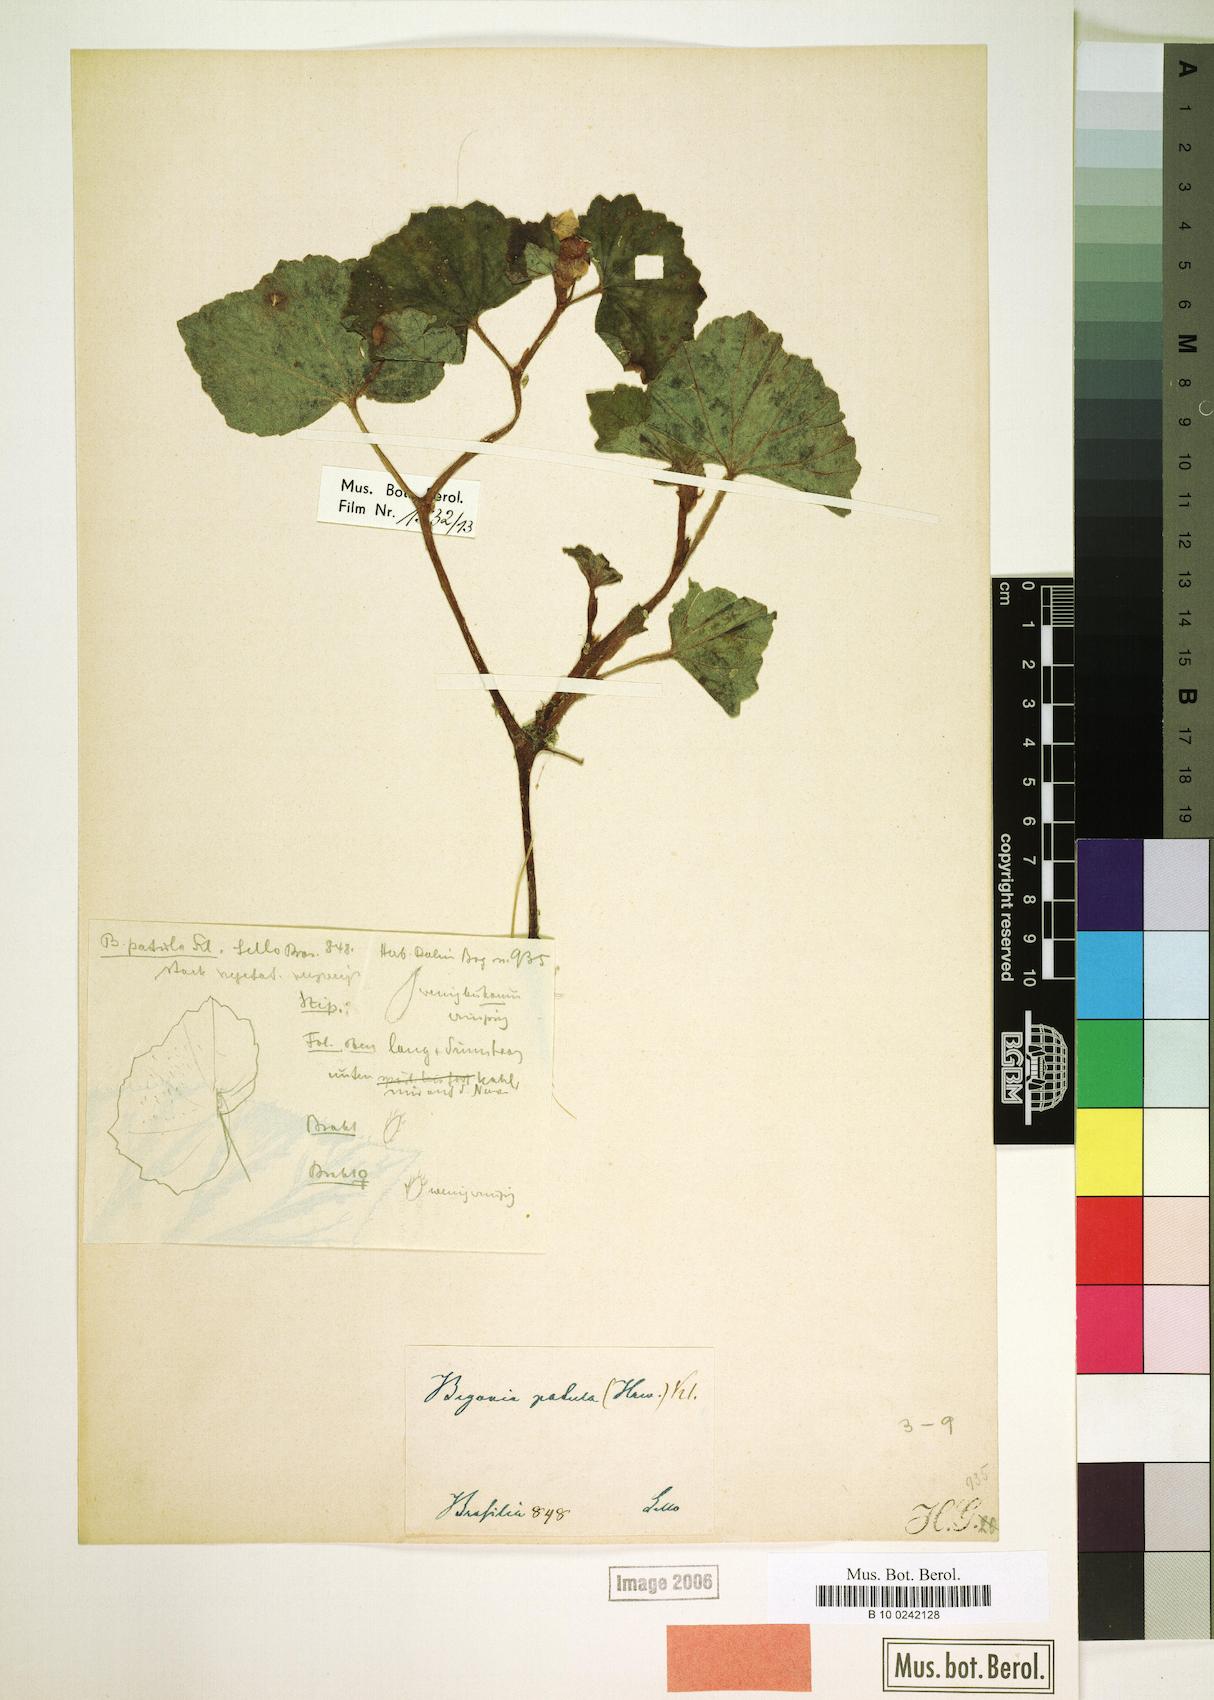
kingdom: Plantae
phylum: Tracheophyta
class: Magnoliopsida
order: Cucurbitales
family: Begoniaceae
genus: Begonia
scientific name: Begonia fischeri
